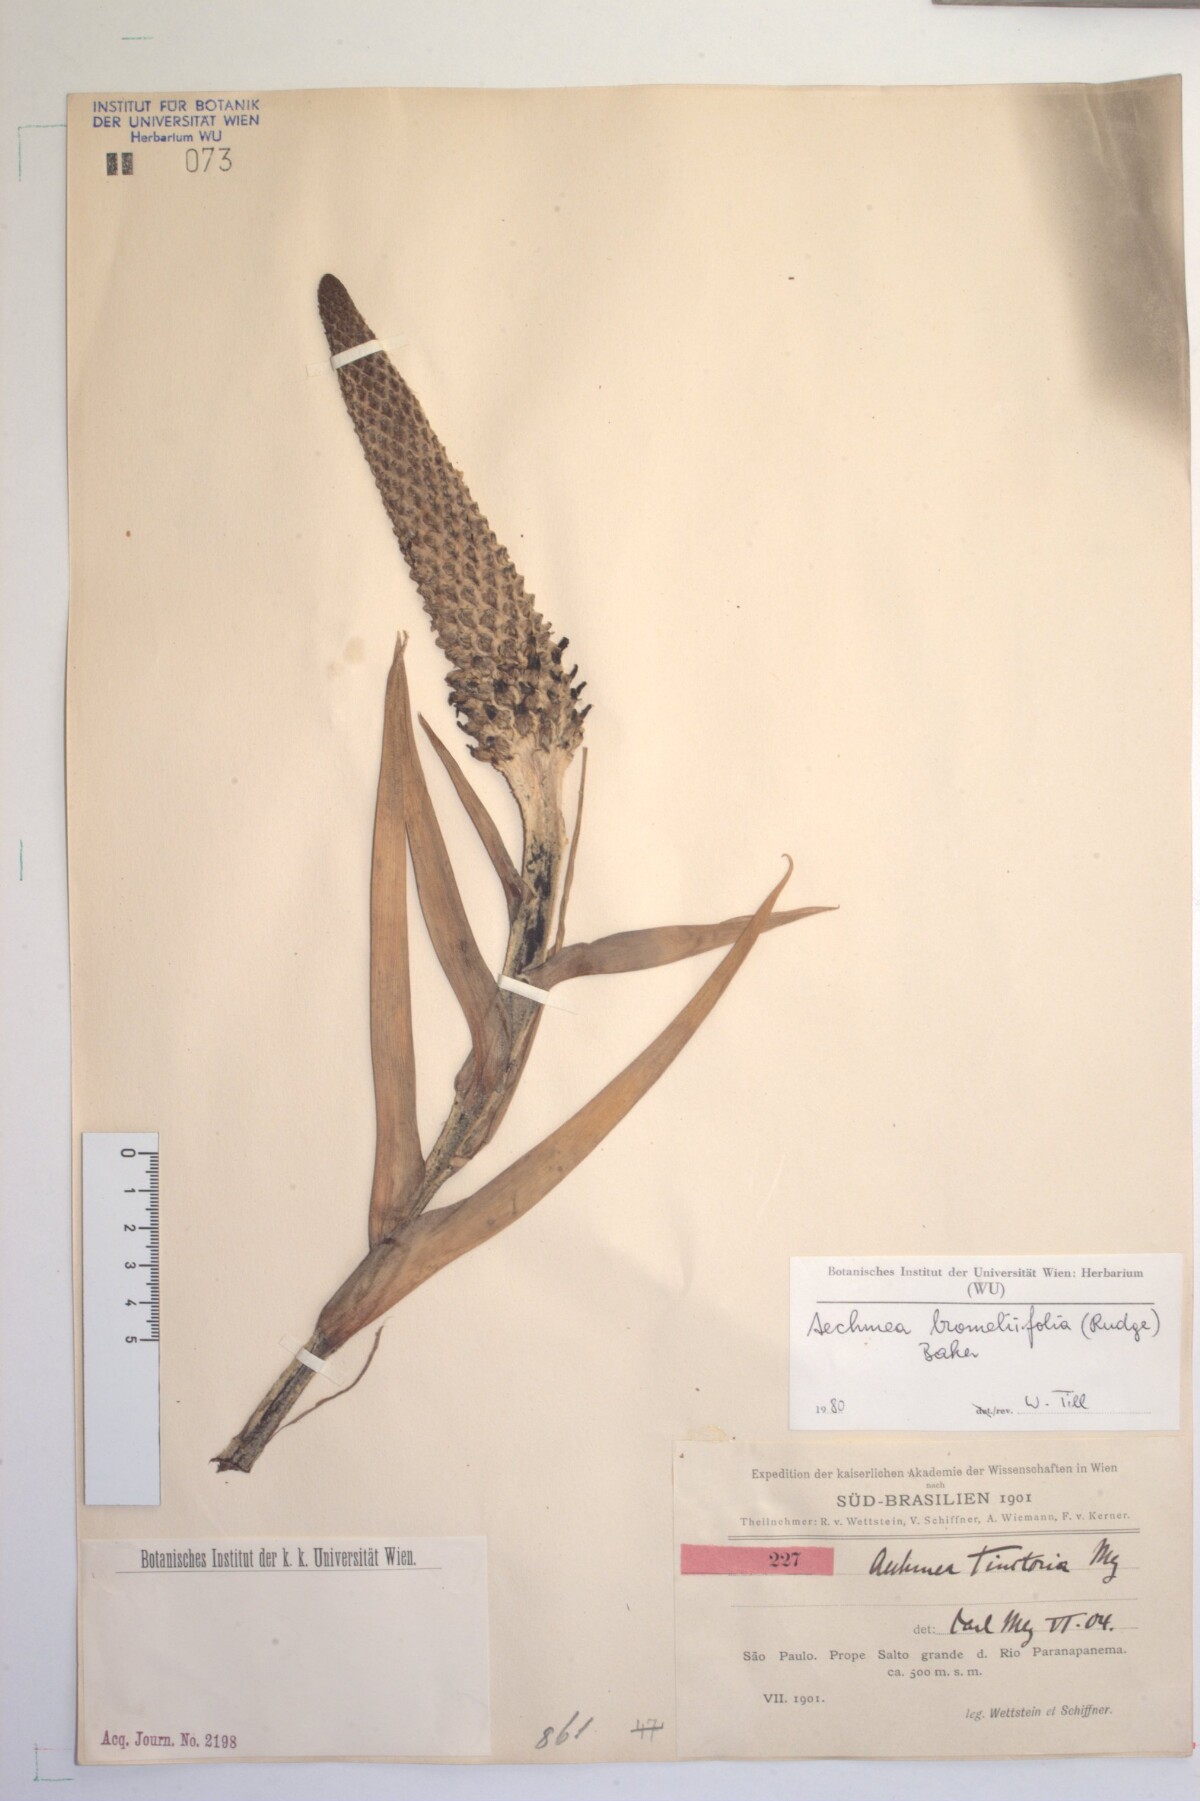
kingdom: Plantae
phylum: Tracheophyta
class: Liliopsida
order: Poales
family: Bromeliaceae
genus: Aechmea
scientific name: Aechmea bromeliifolia
